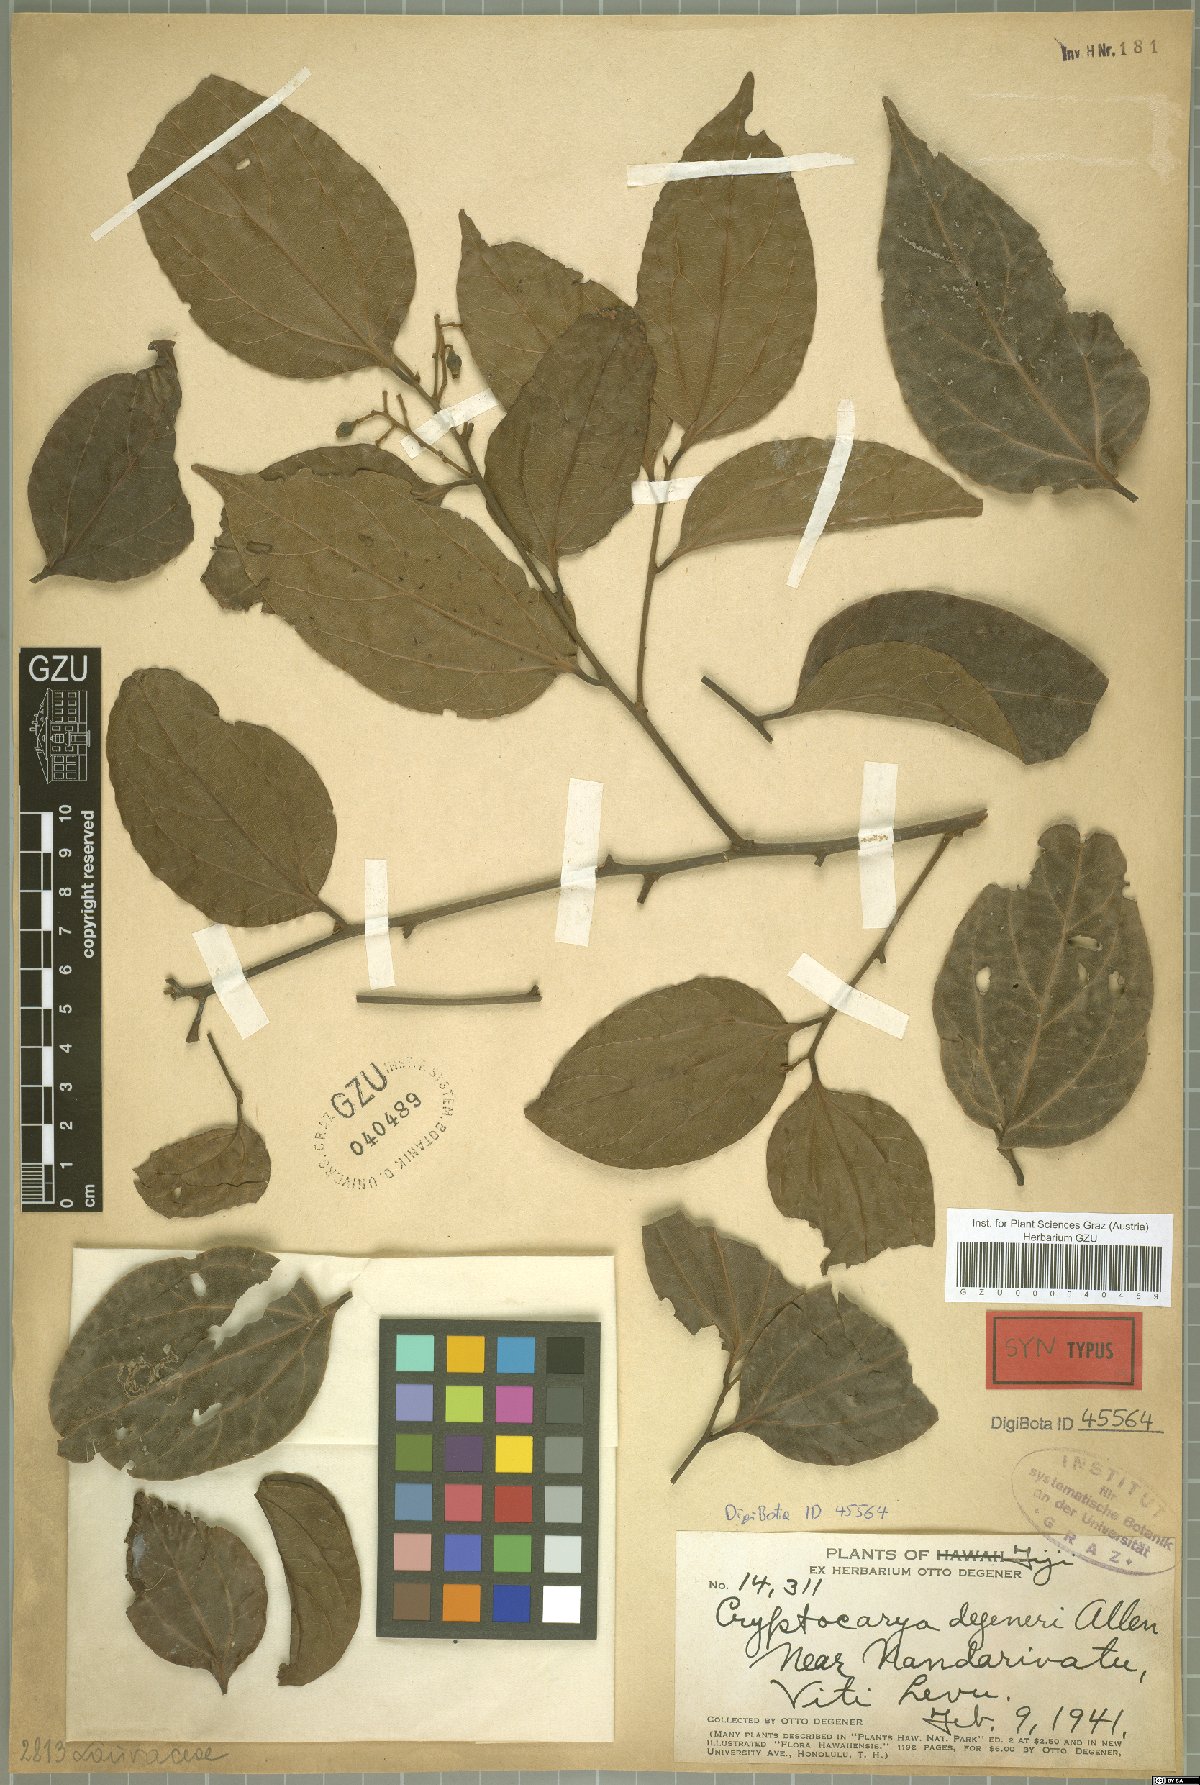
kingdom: Plantae
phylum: Tracheophyta
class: Magnoliopsida
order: Laurales
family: Lauraceae
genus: Cryptocarya
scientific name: Cryptocarya hornei
